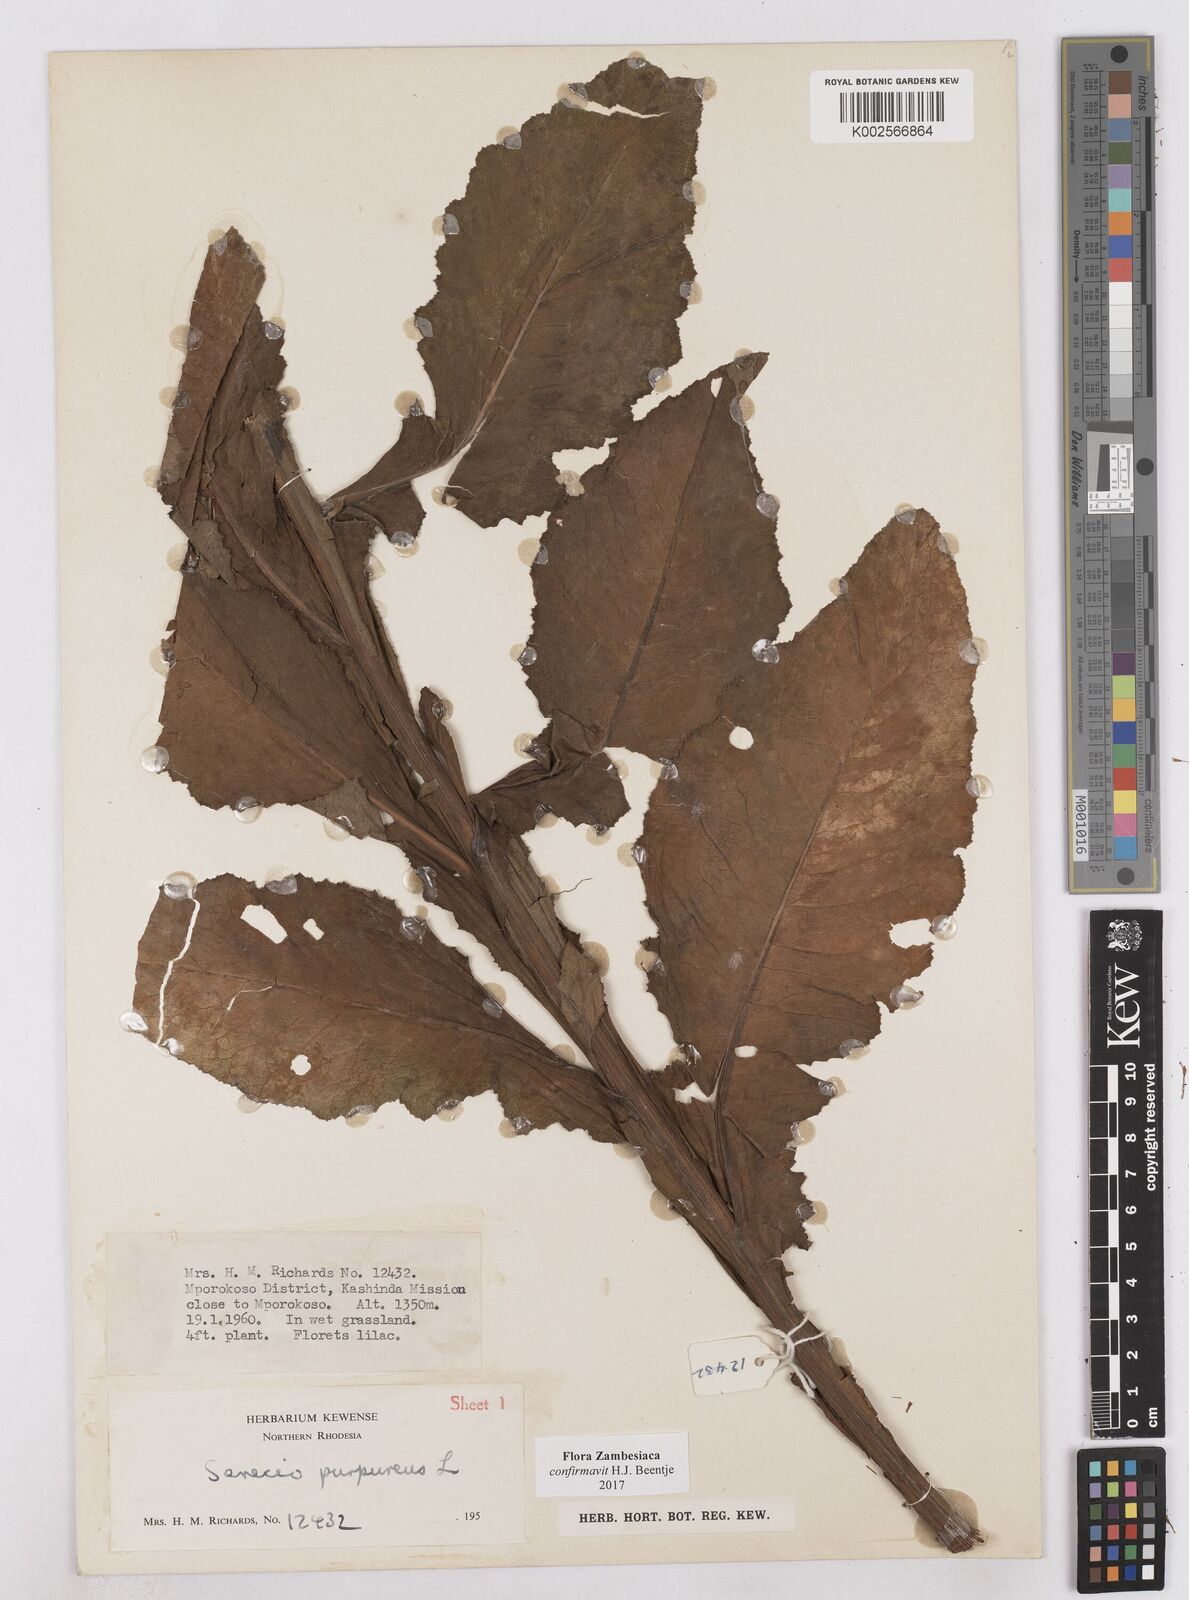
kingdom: Plantae
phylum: Tracheophyta
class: Magnoliopsida
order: Asterales
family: Asteraceae
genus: Senecio
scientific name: Senecio purpureus
